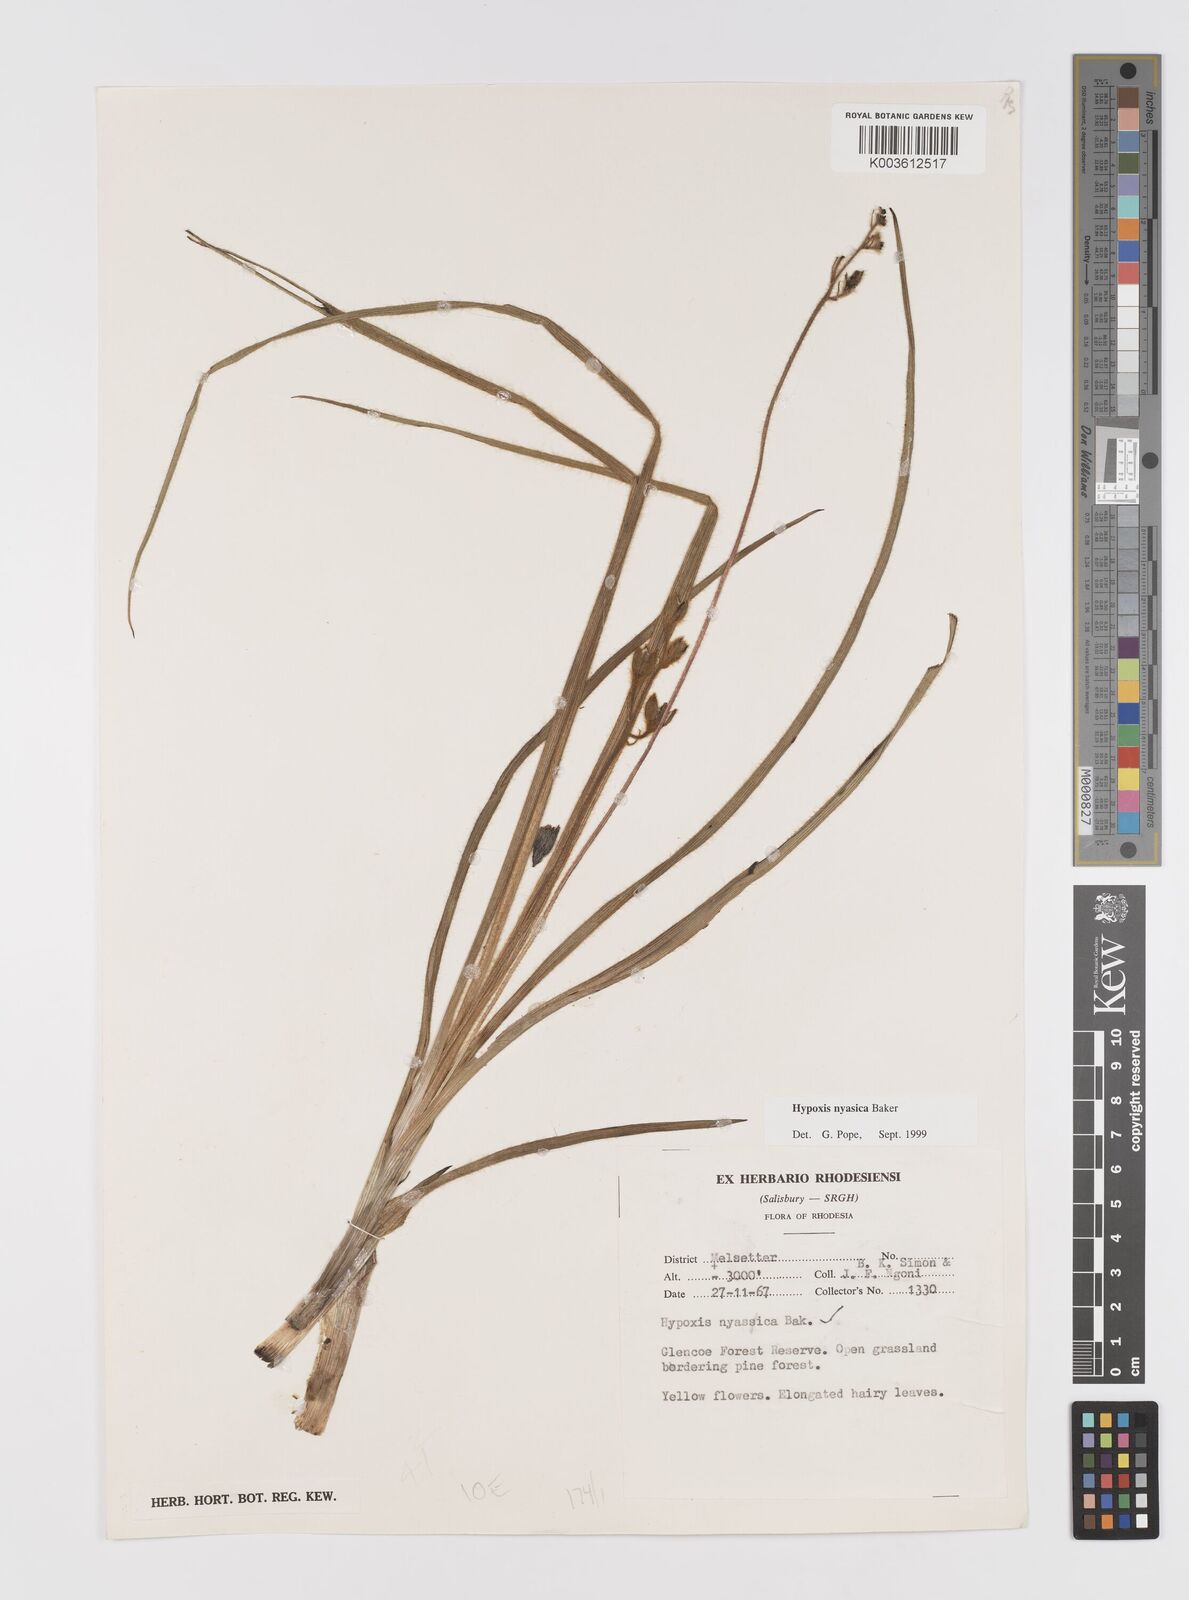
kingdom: Plantae
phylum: Tracheophyta
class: Liliopsida
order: Asparagales
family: Hypoxidaceae
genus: Hypoxis
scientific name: Hypoxis nyasica
